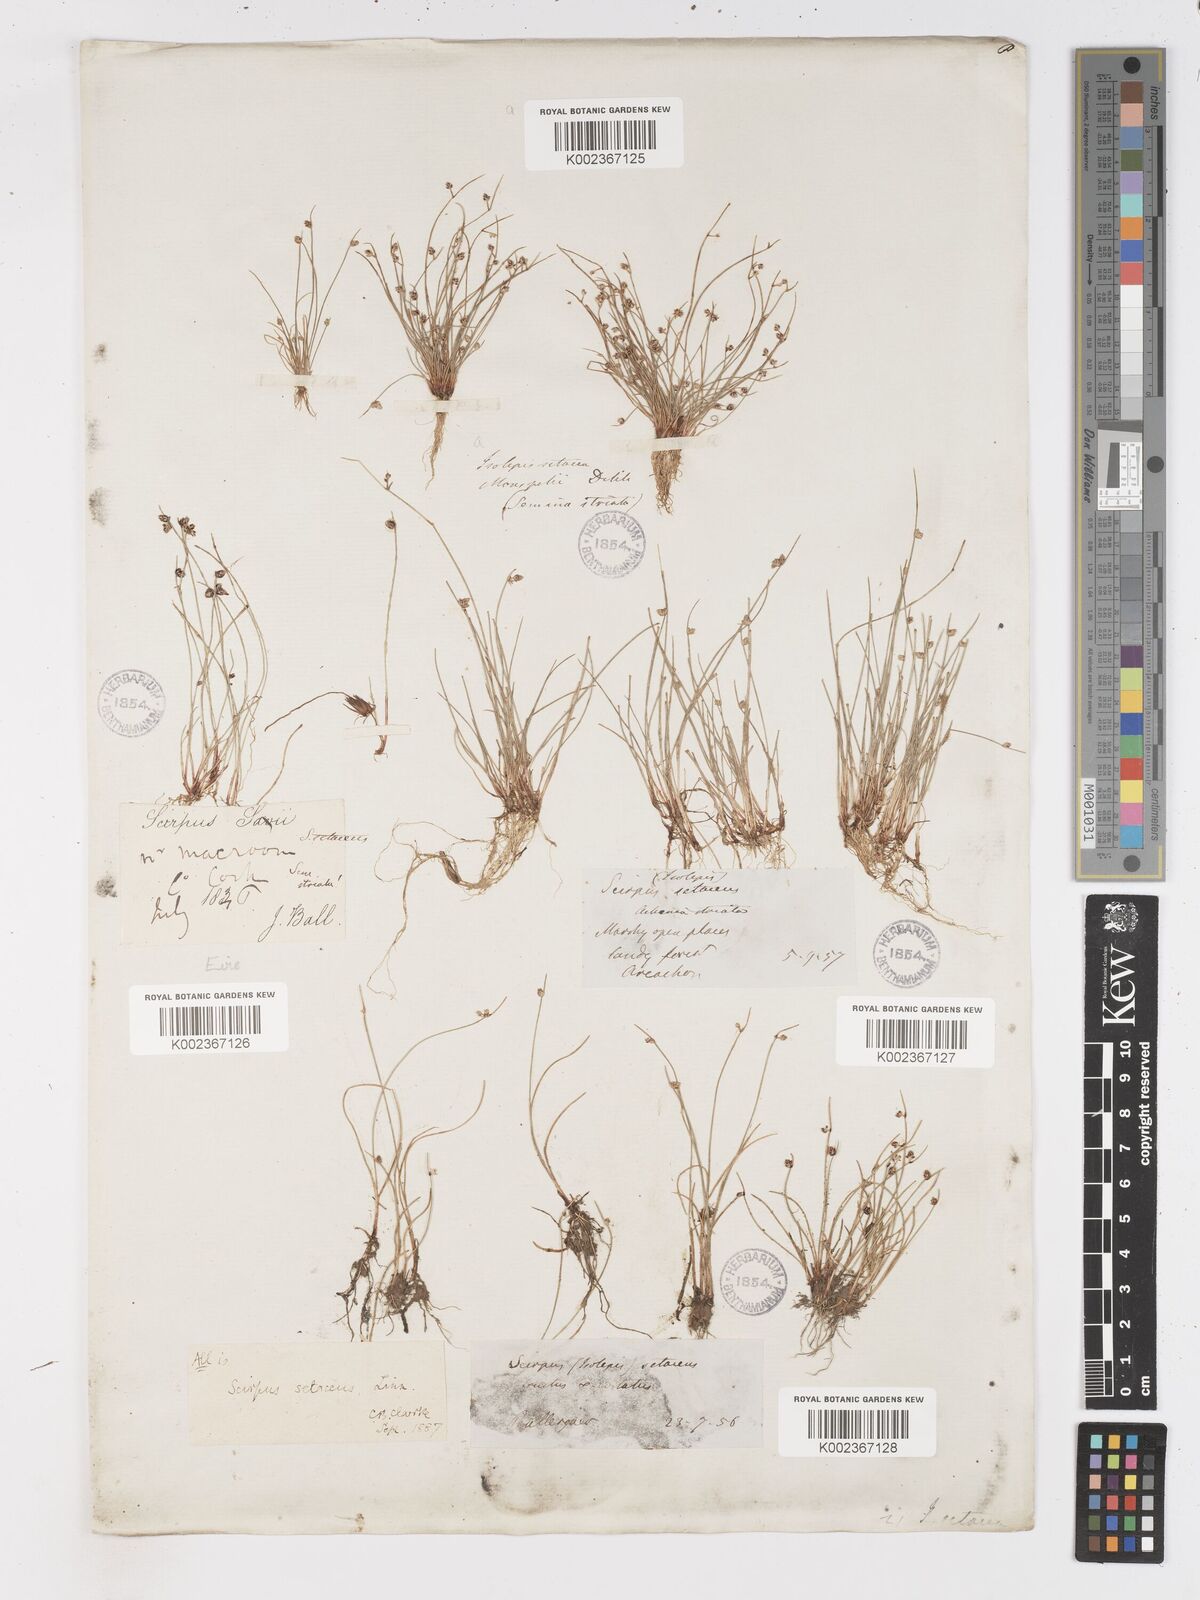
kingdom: Plantae
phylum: Tracheophyta
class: Liliopsida
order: Poales
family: Cyperaceae
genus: Isolepis
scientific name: Isolepis setacea
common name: Bristle club-rush
